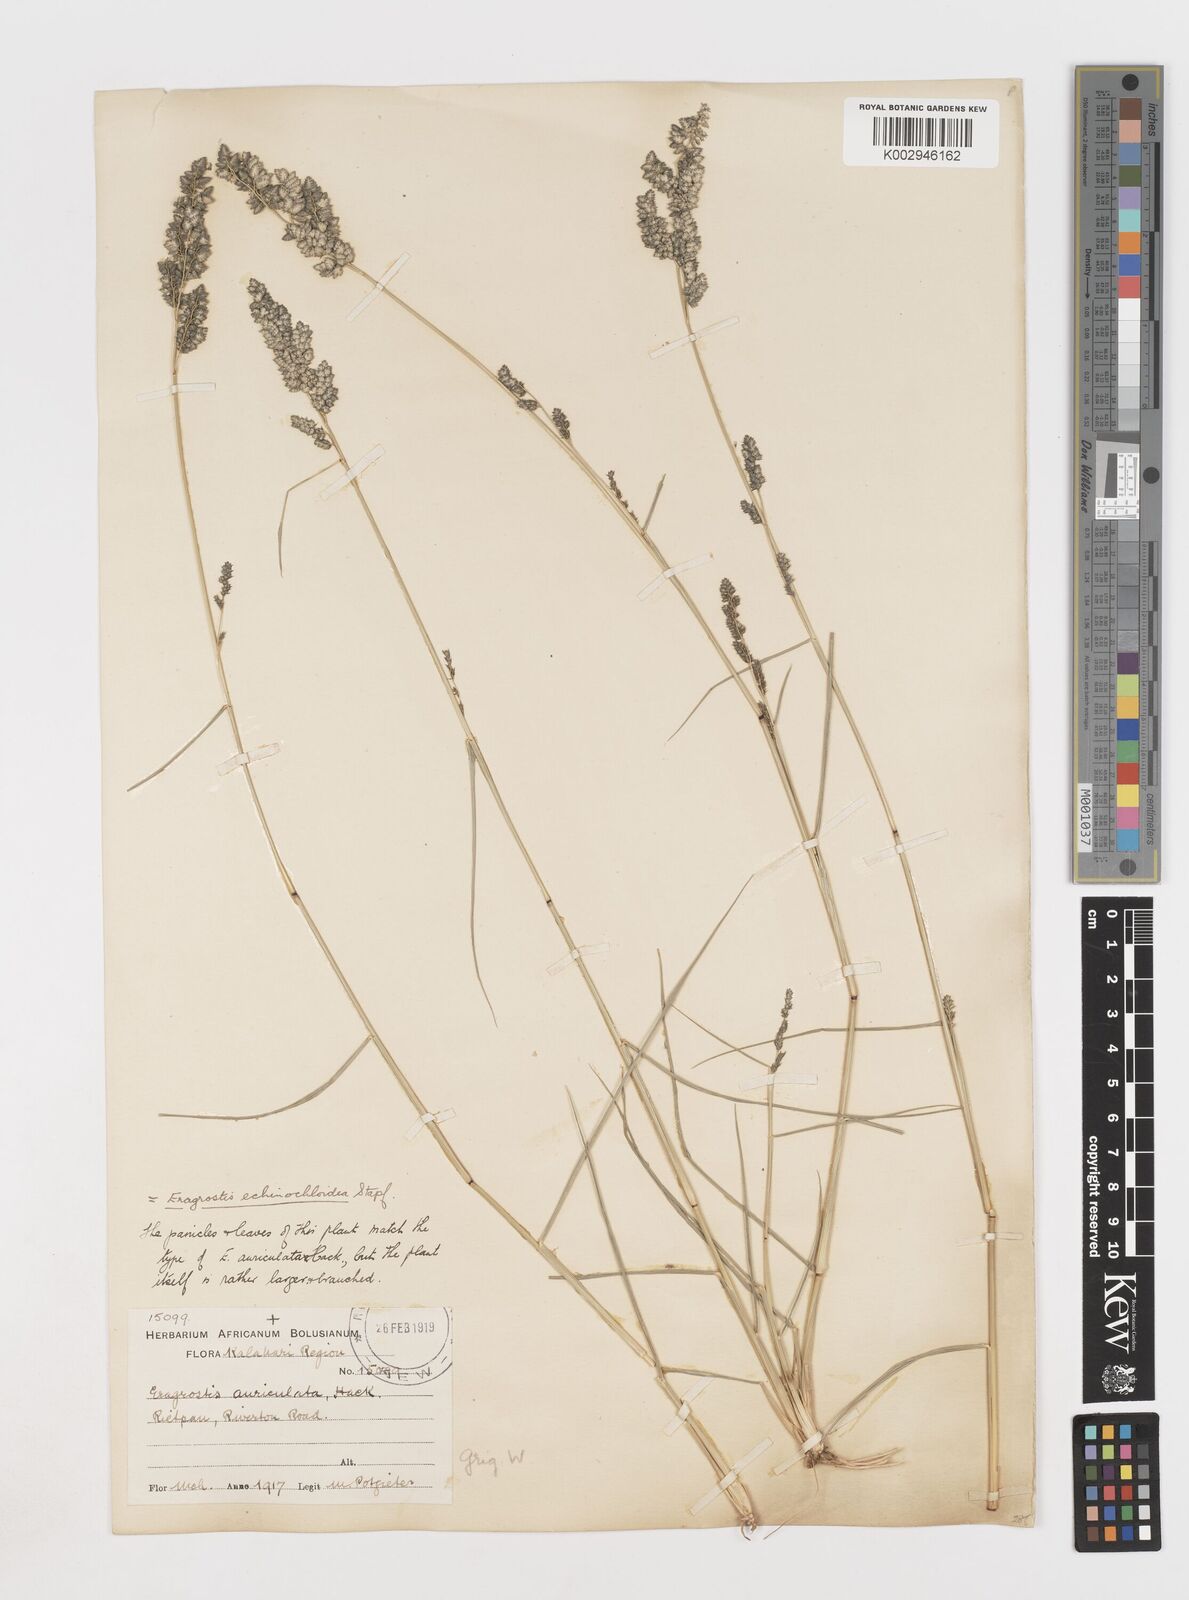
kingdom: Plantae
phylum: Tracheophyta
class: Liliopsida
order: Poales
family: Poaceae
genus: Eragrostis
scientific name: Eragrostis echinochloidea
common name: African lovegrass
